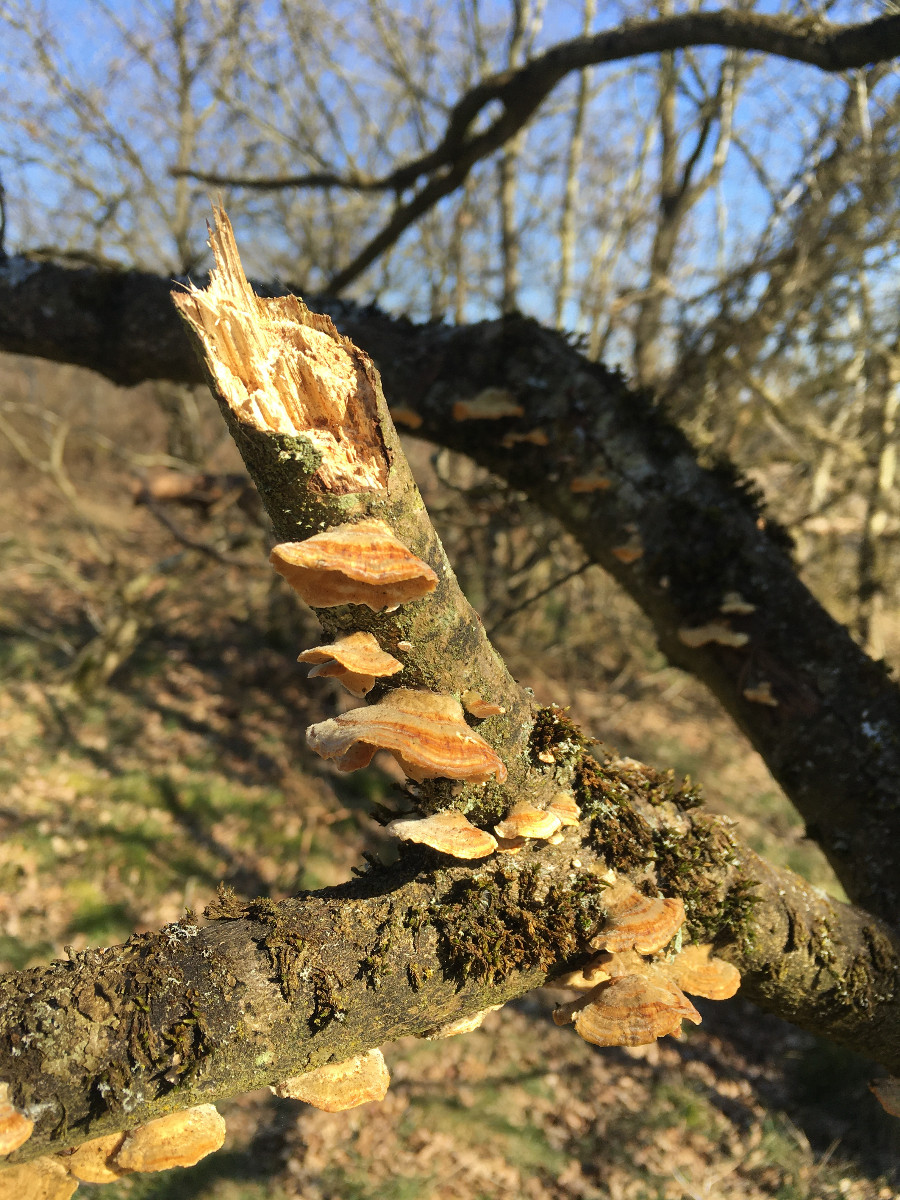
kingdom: Fungi
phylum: Basidiomycota
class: Agaricomycetes
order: Polyporales
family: Polyporaceae
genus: Trametes
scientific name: Trametes
